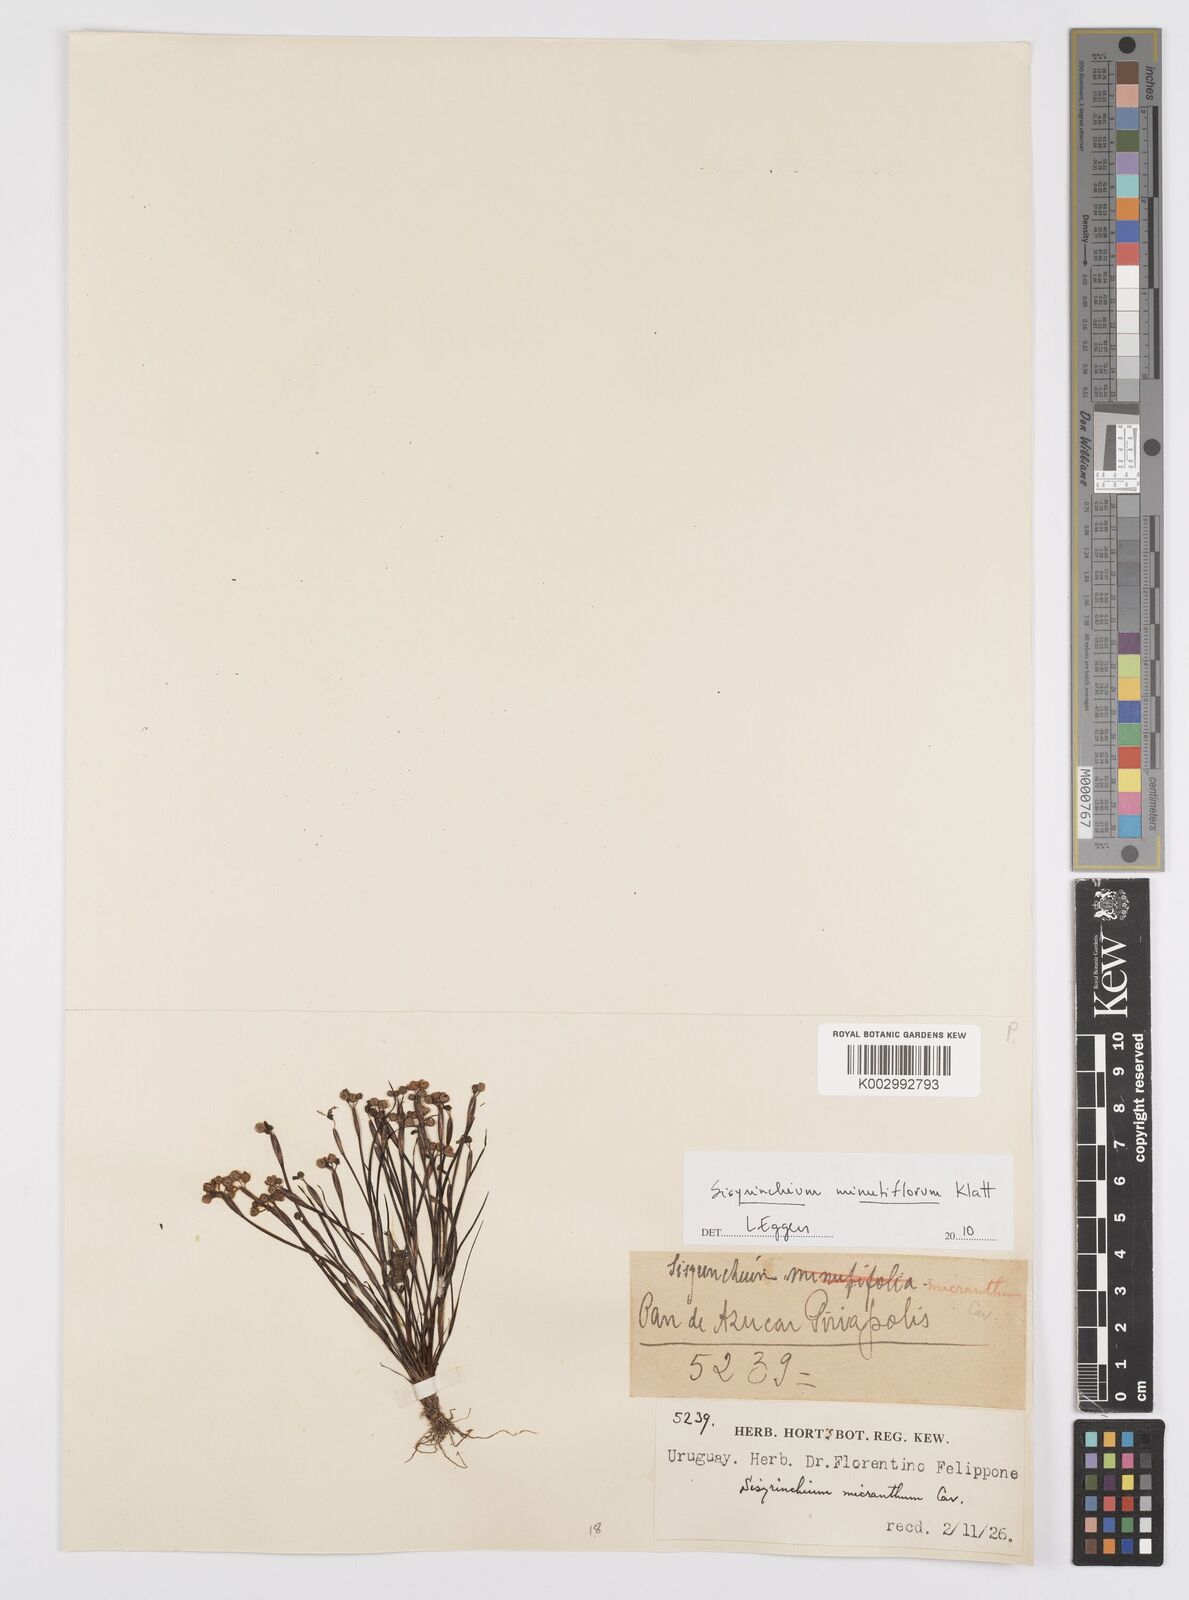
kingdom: Plantae
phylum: Tracheophyta
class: Liliopsida
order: Asparagales
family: Iridaceae
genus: Sisyrinchium
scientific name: Sisyrinchium minutiflorum
